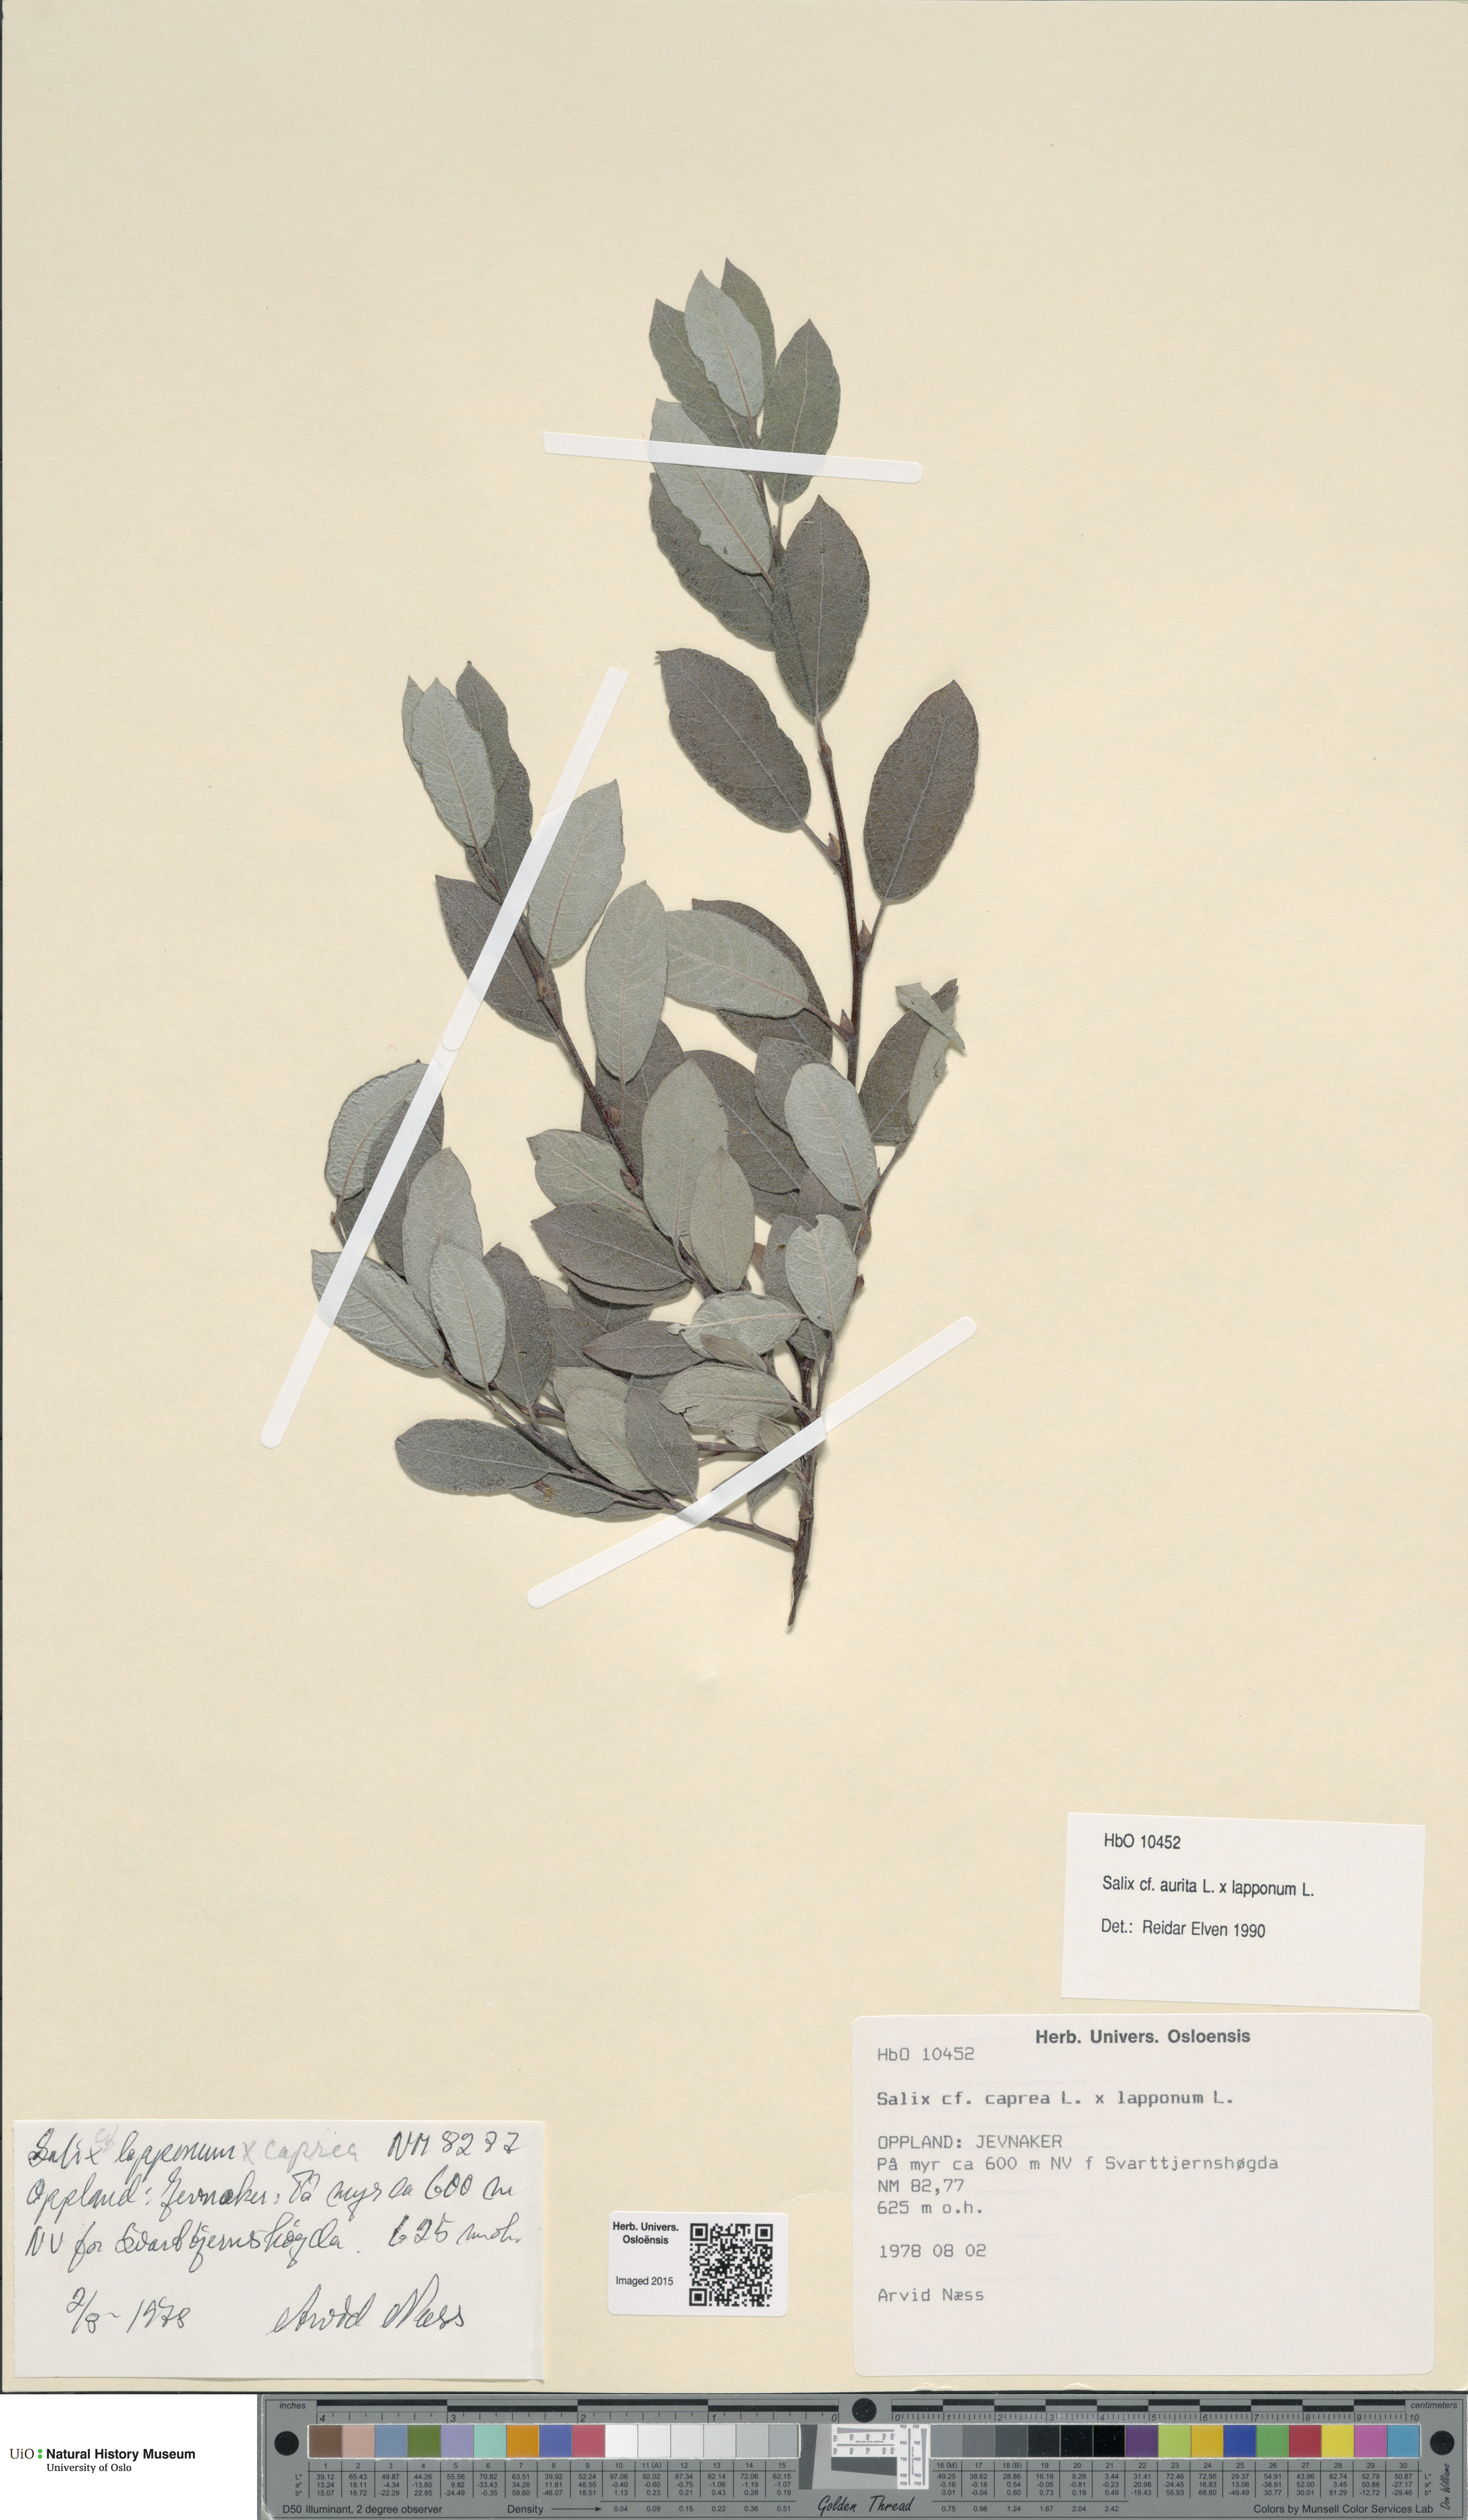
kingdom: Plantae
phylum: Tracheophyta
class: Magnoliopsida
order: Malpighiales
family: Salicaceae
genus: Salix
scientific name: Salix
